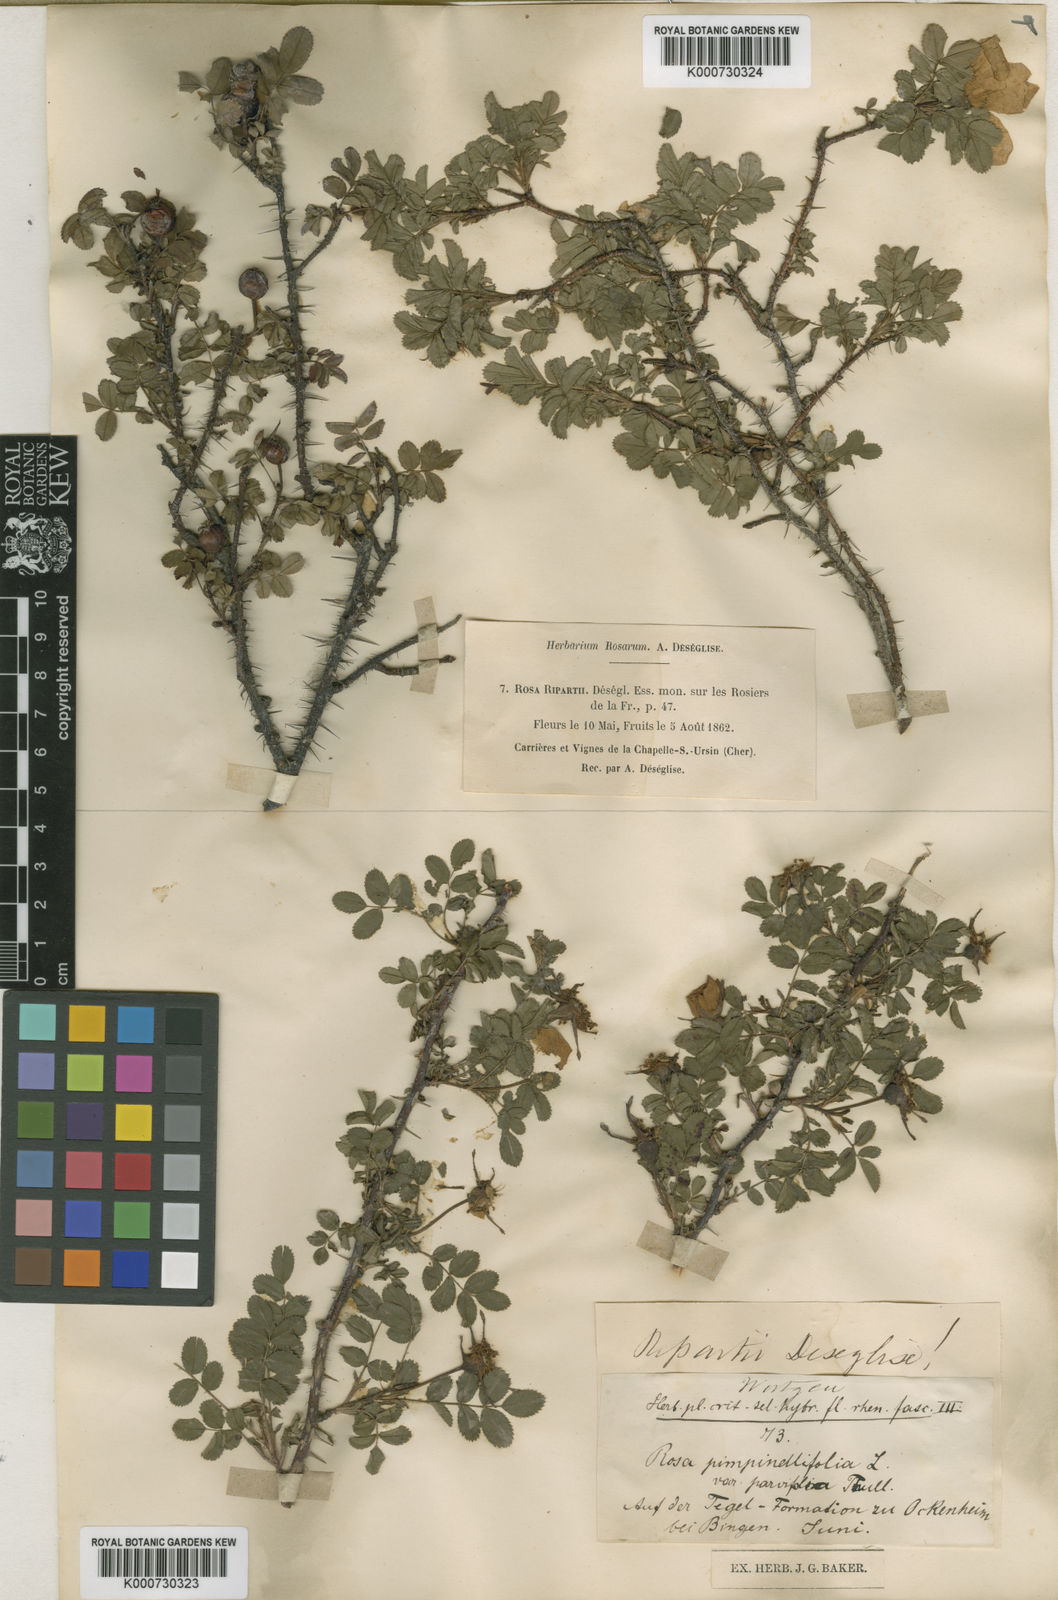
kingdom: Plantae
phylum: Tracheophyta
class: Magnoliopsida
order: Rosales
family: Rosaceae
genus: Rosa
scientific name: Rosa spinosissima
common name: Burnet rose
